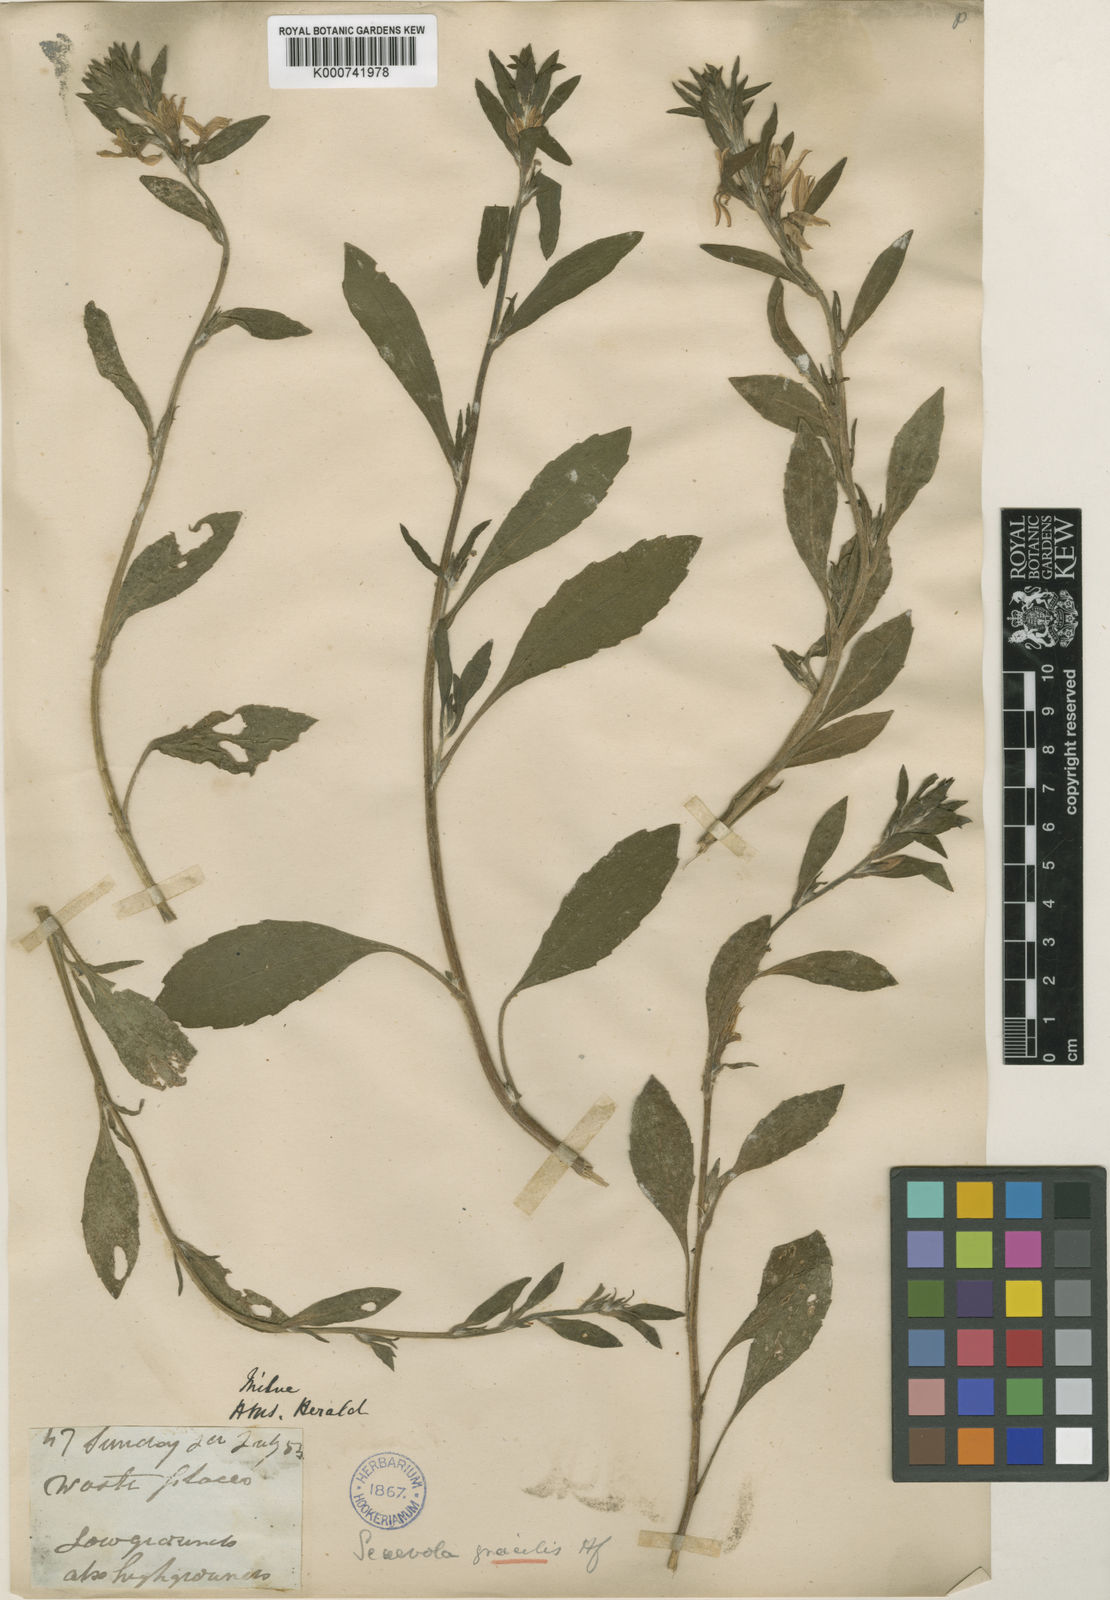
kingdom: Plantae
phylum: Tracheophyta
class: Magnoliopsida
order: Asterales
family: Goodeniaceae
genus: Scaevola
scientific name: Scaevola gracilis
